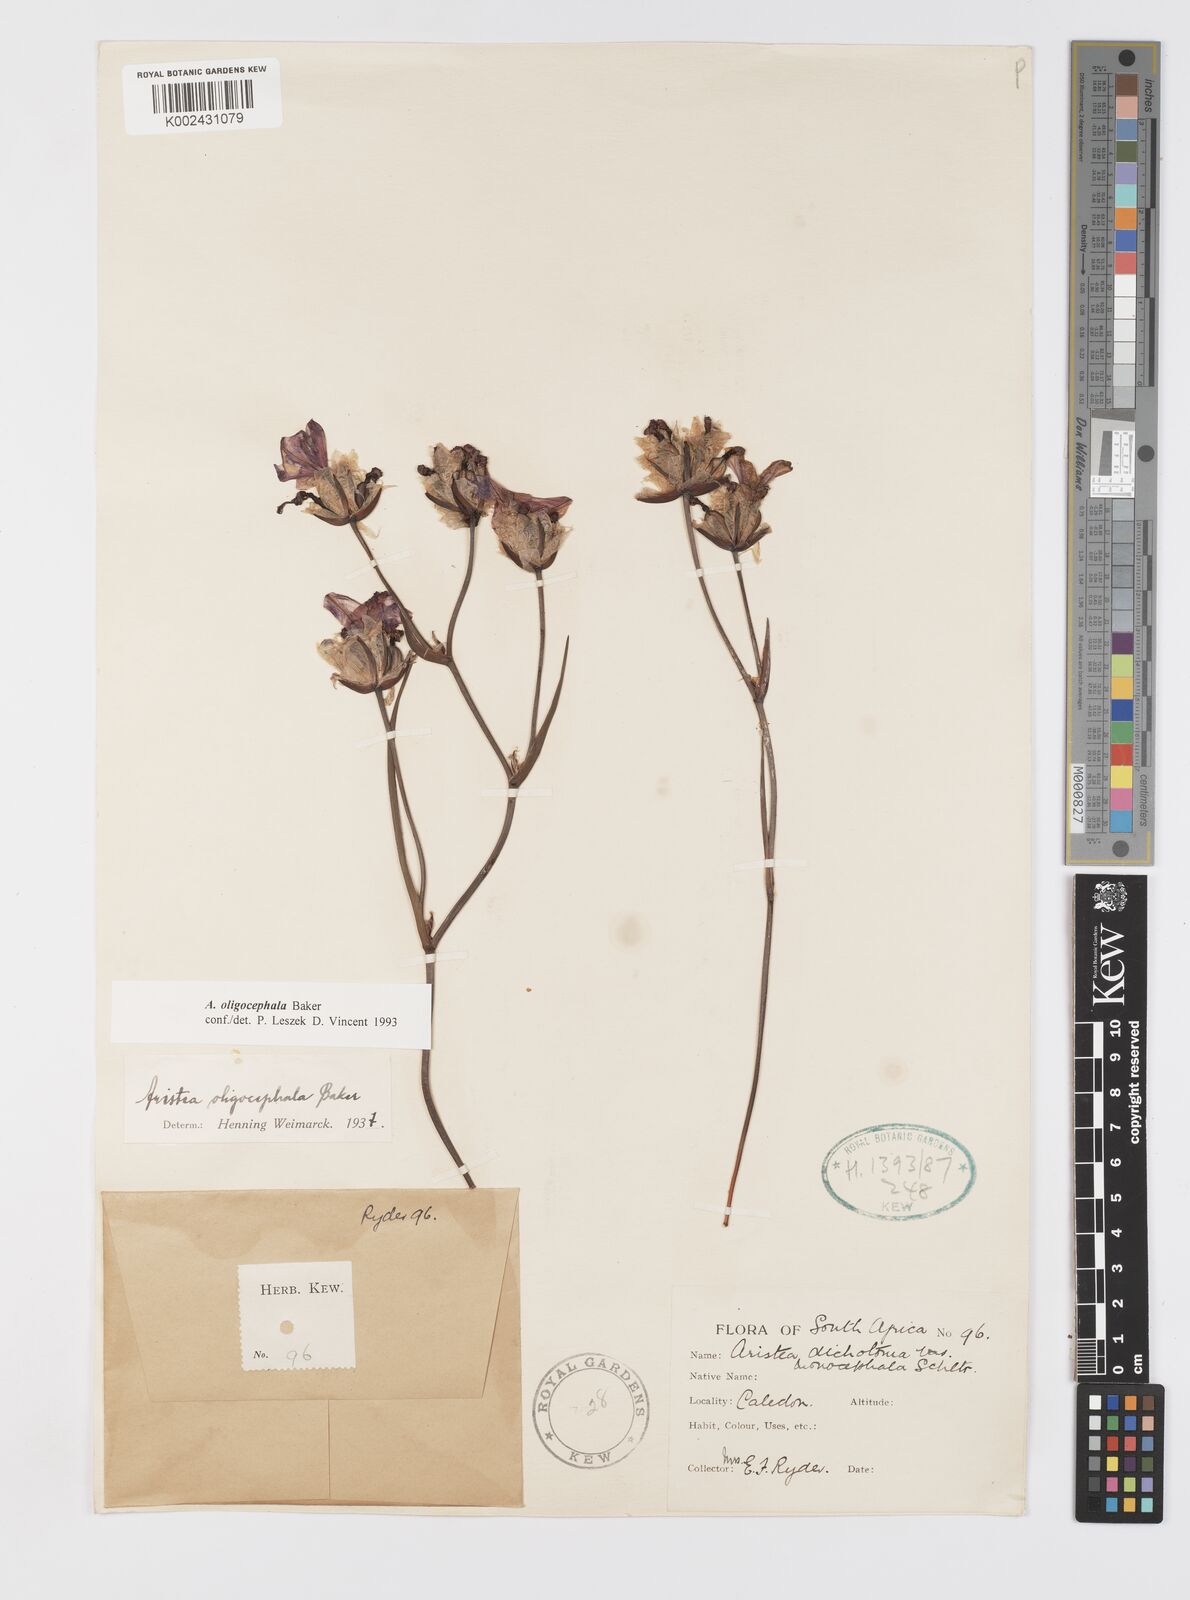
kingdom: Plantae
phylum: Tracheophyta
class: Liliopsida
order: Asparagales
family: Iridaceae
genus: Aristea
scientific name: Aristea oligocephala
